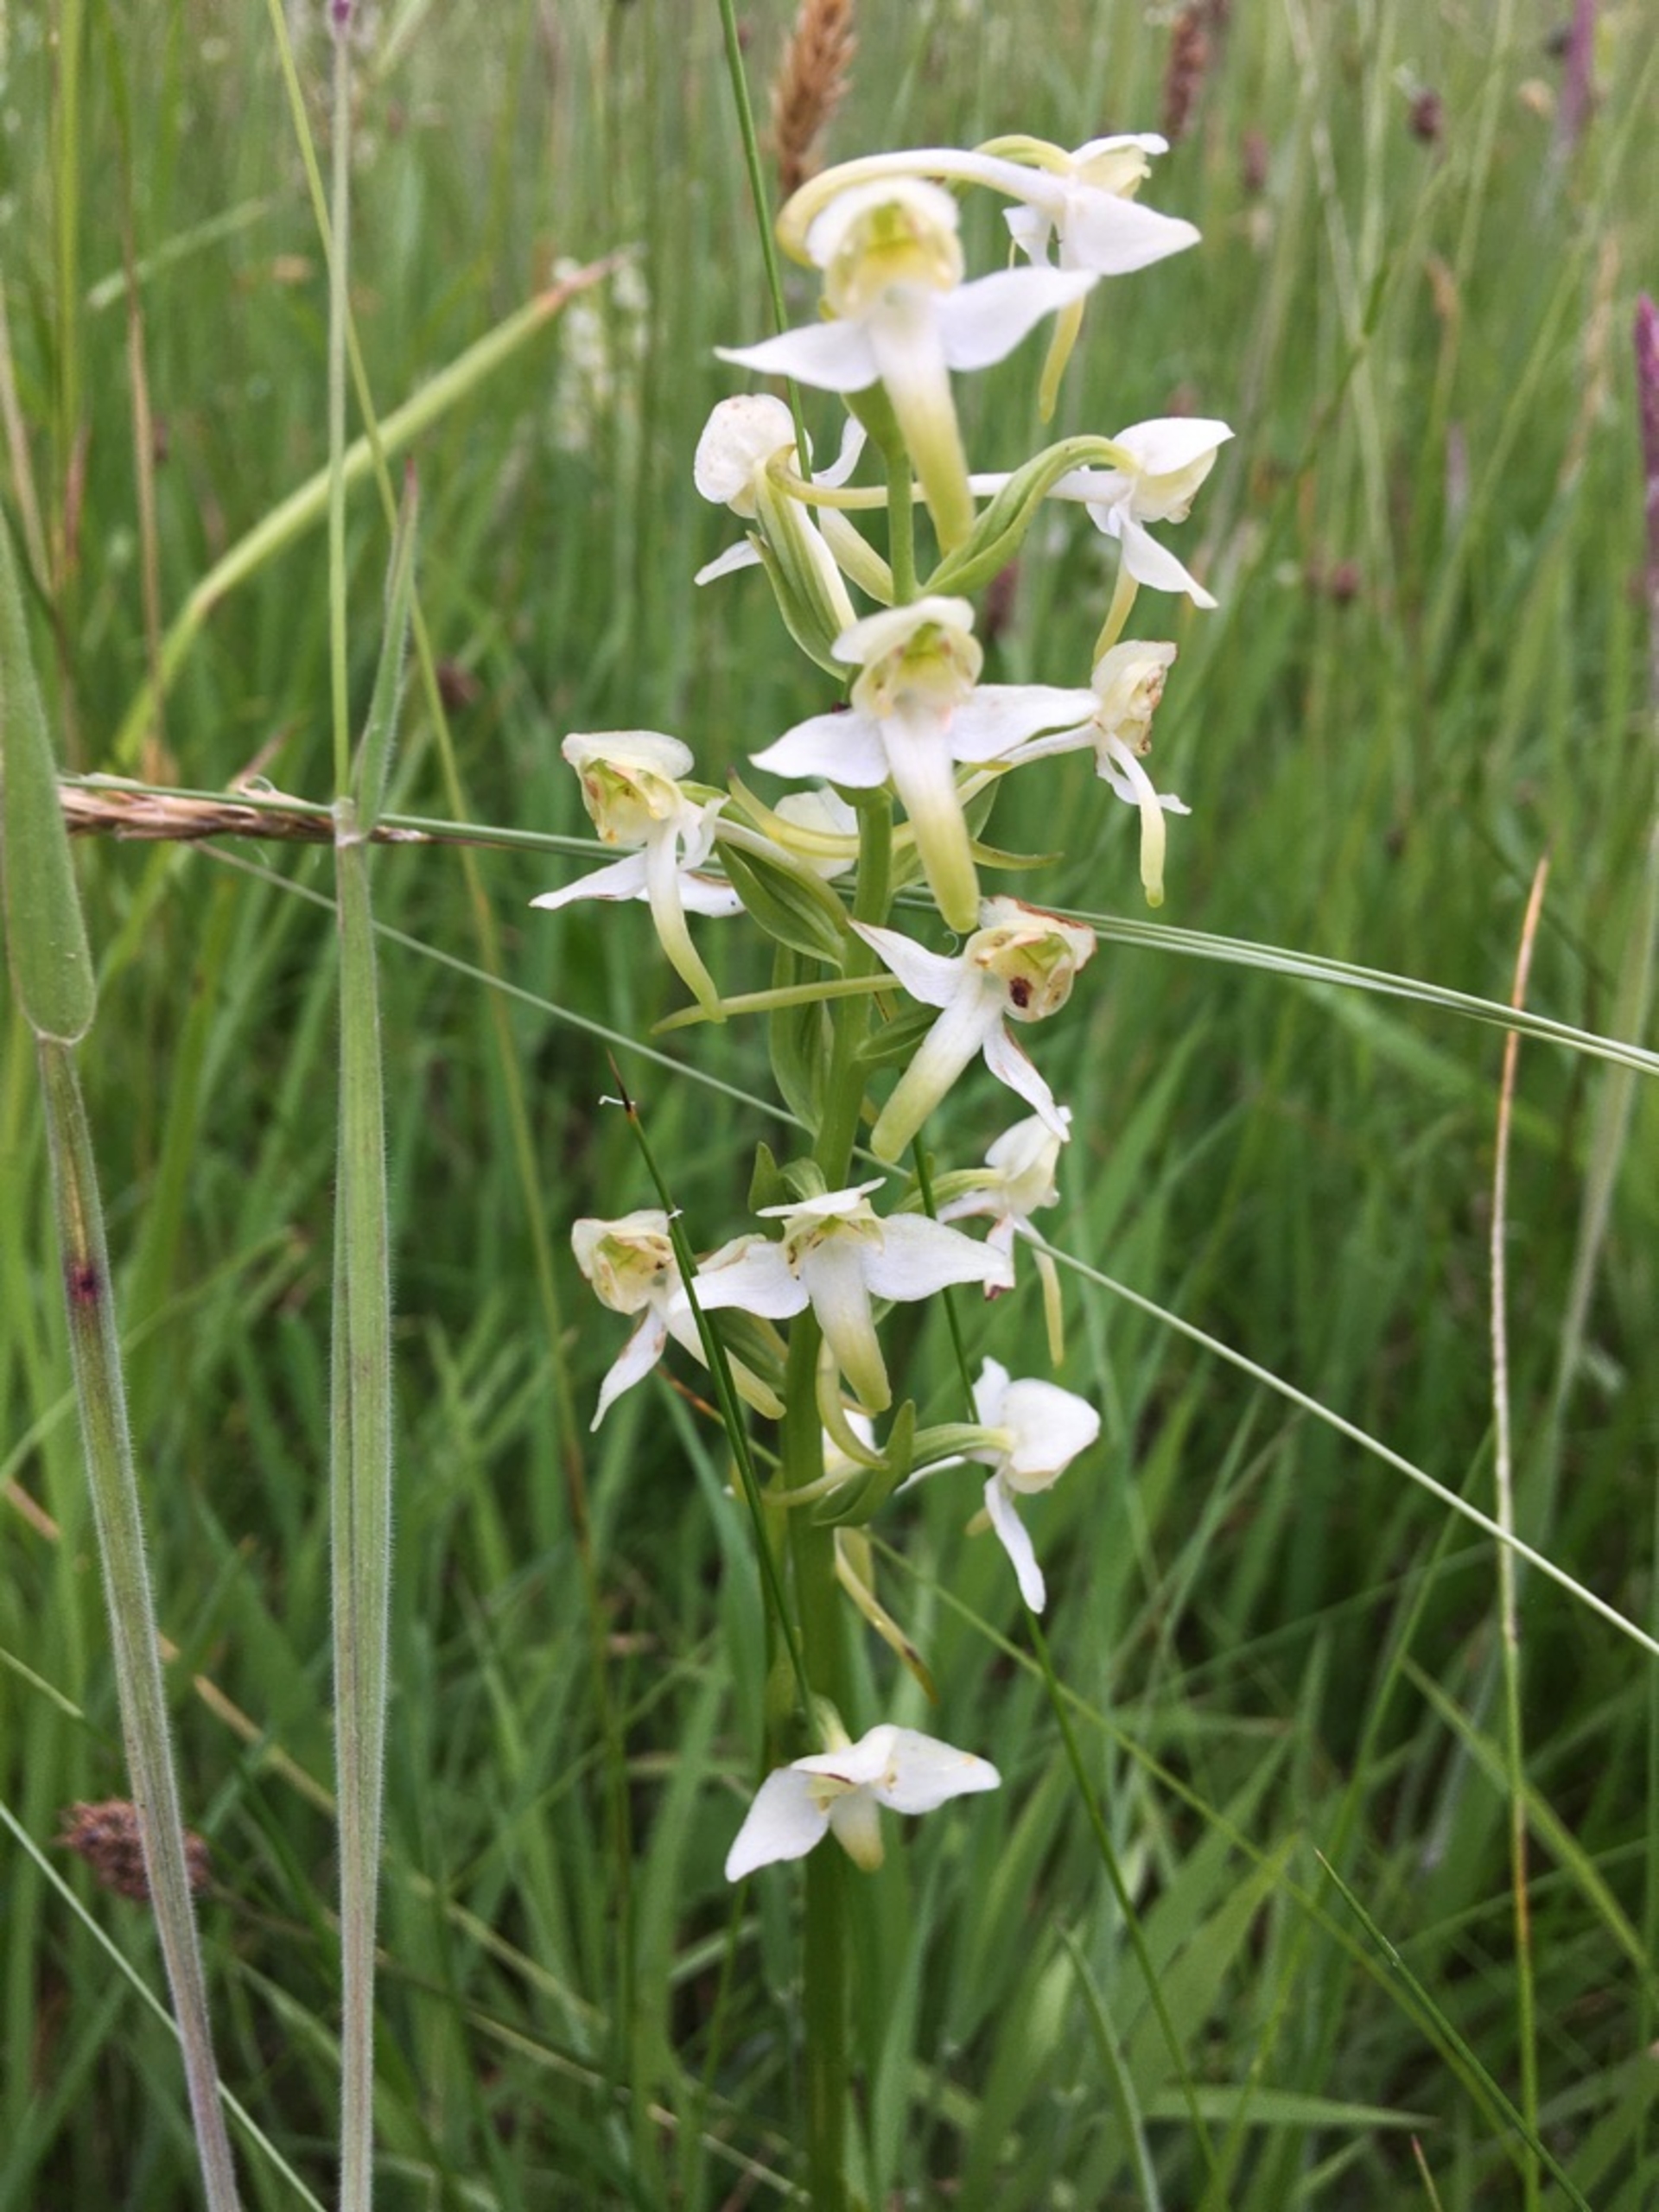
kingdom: Plantae
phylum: Tracheophyta
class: Liliopsida
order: Asparagales
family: Orchidaceae
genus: Platanthera
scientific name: Platanthera chlorantha
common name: Skov-gøgelilje
